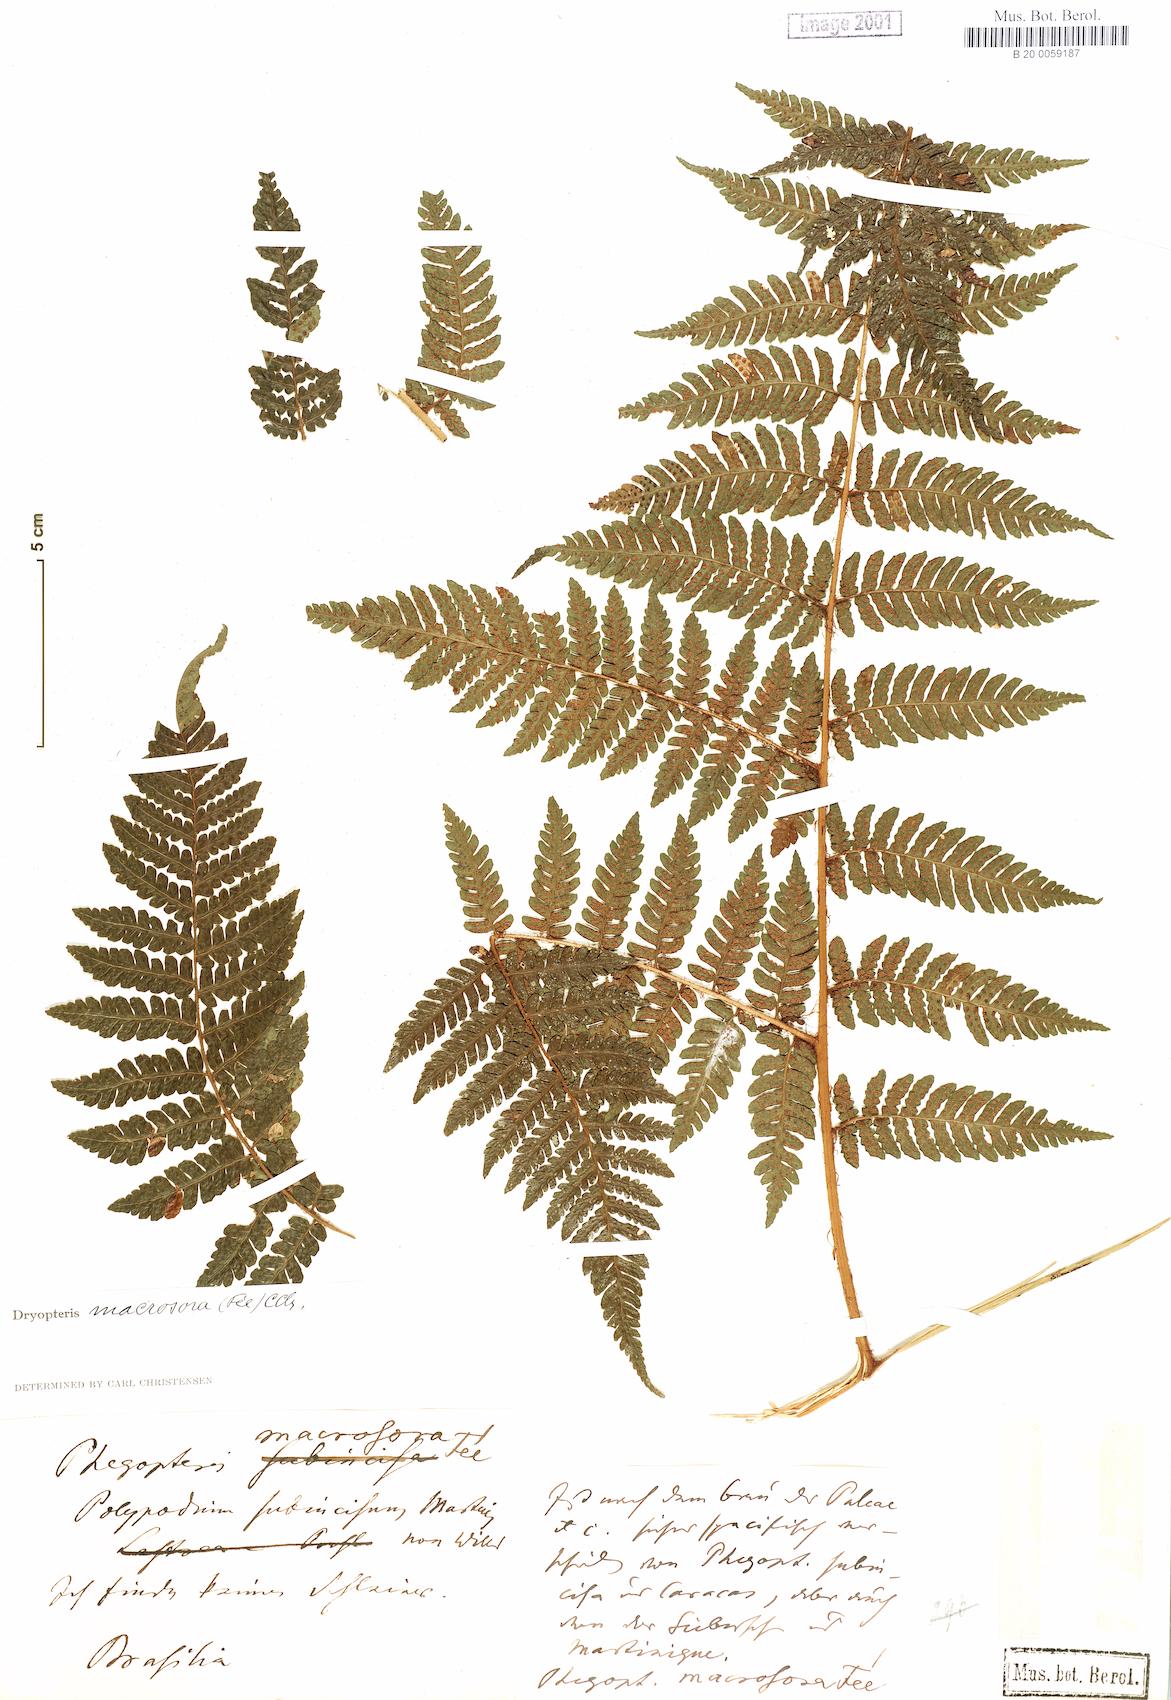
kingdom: Plantae
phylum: Tracheophyta
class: Polypodiopsida
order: Polypodiales
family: Dryopteridaceae
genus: Megalastrum
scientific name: Megalastrum inaequale
